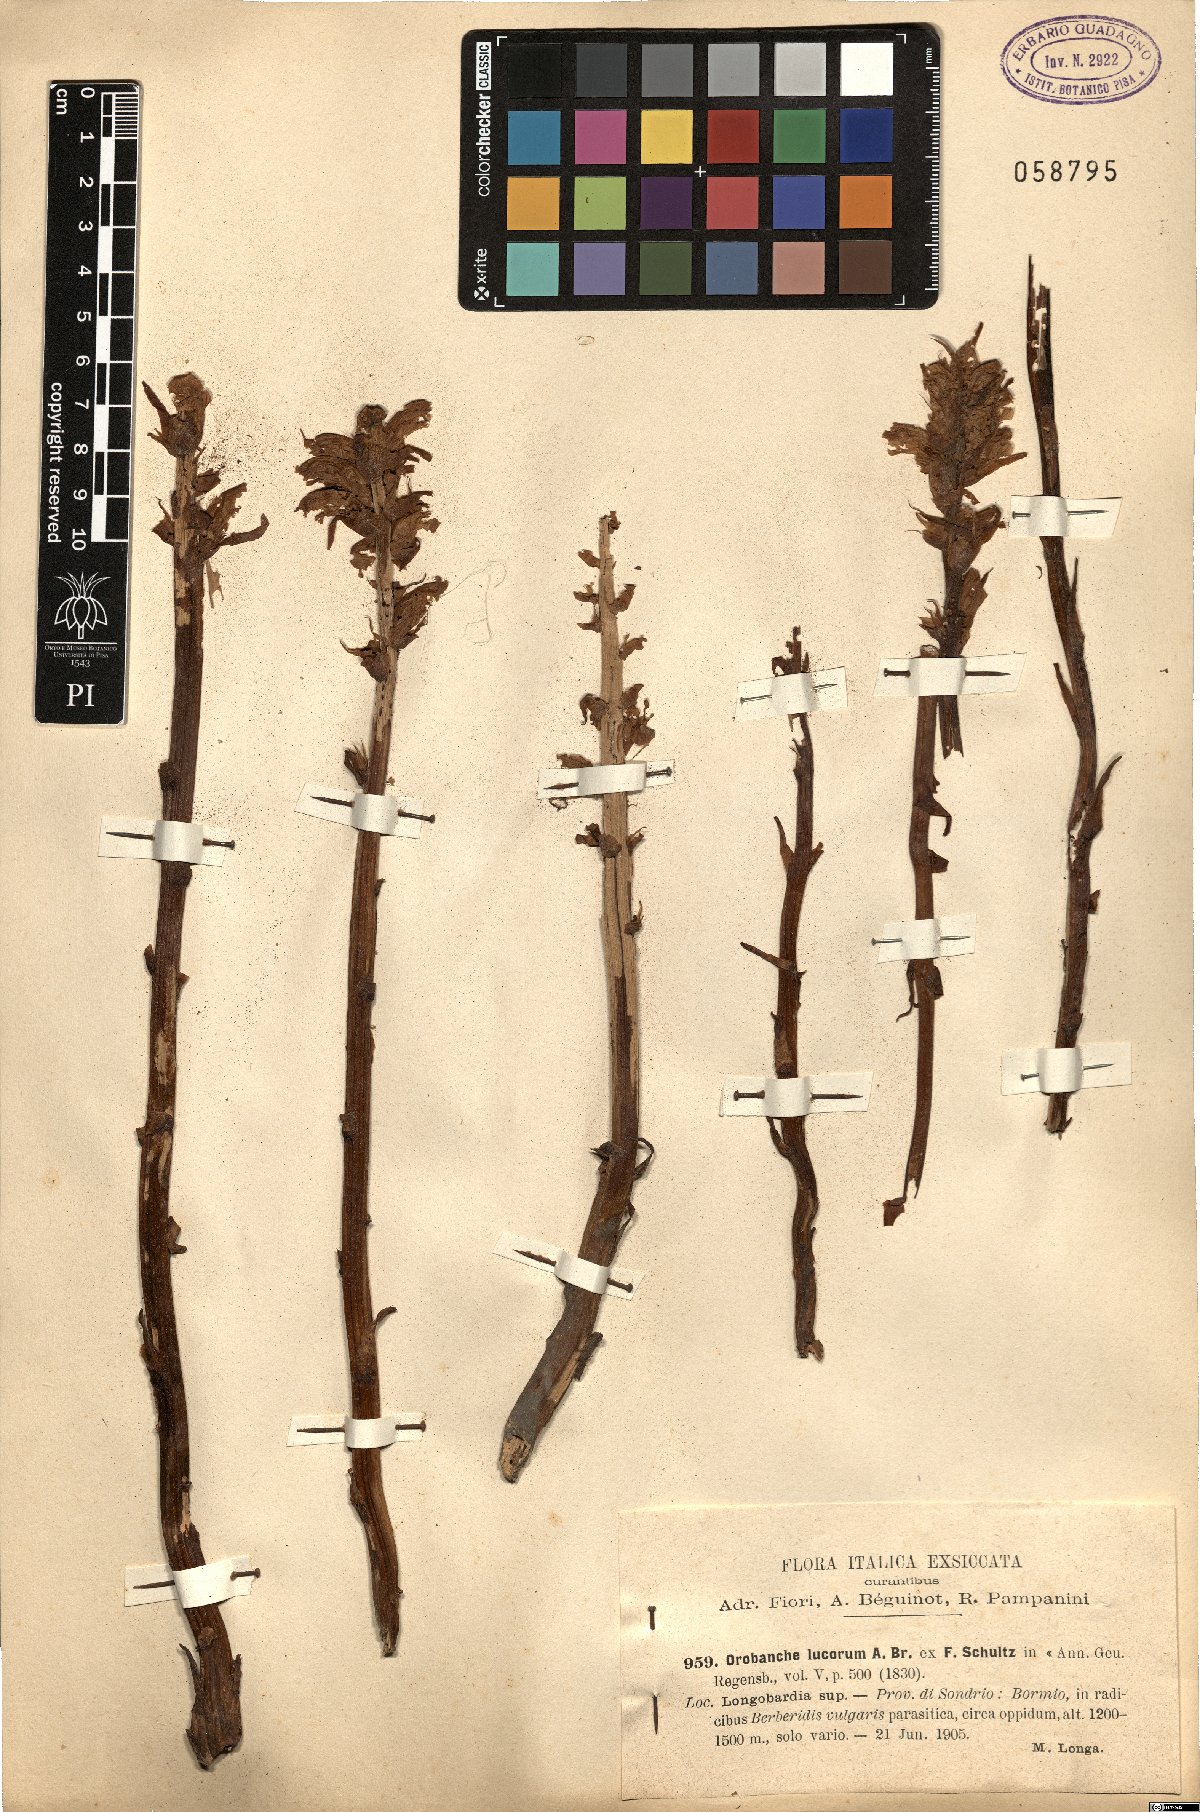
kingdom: Plantae
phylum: Tracheophyta
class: Magnoliopsida
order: Lamiales
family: Orobanchaceae
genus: Orobanche
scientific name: Orobanche lucorum
